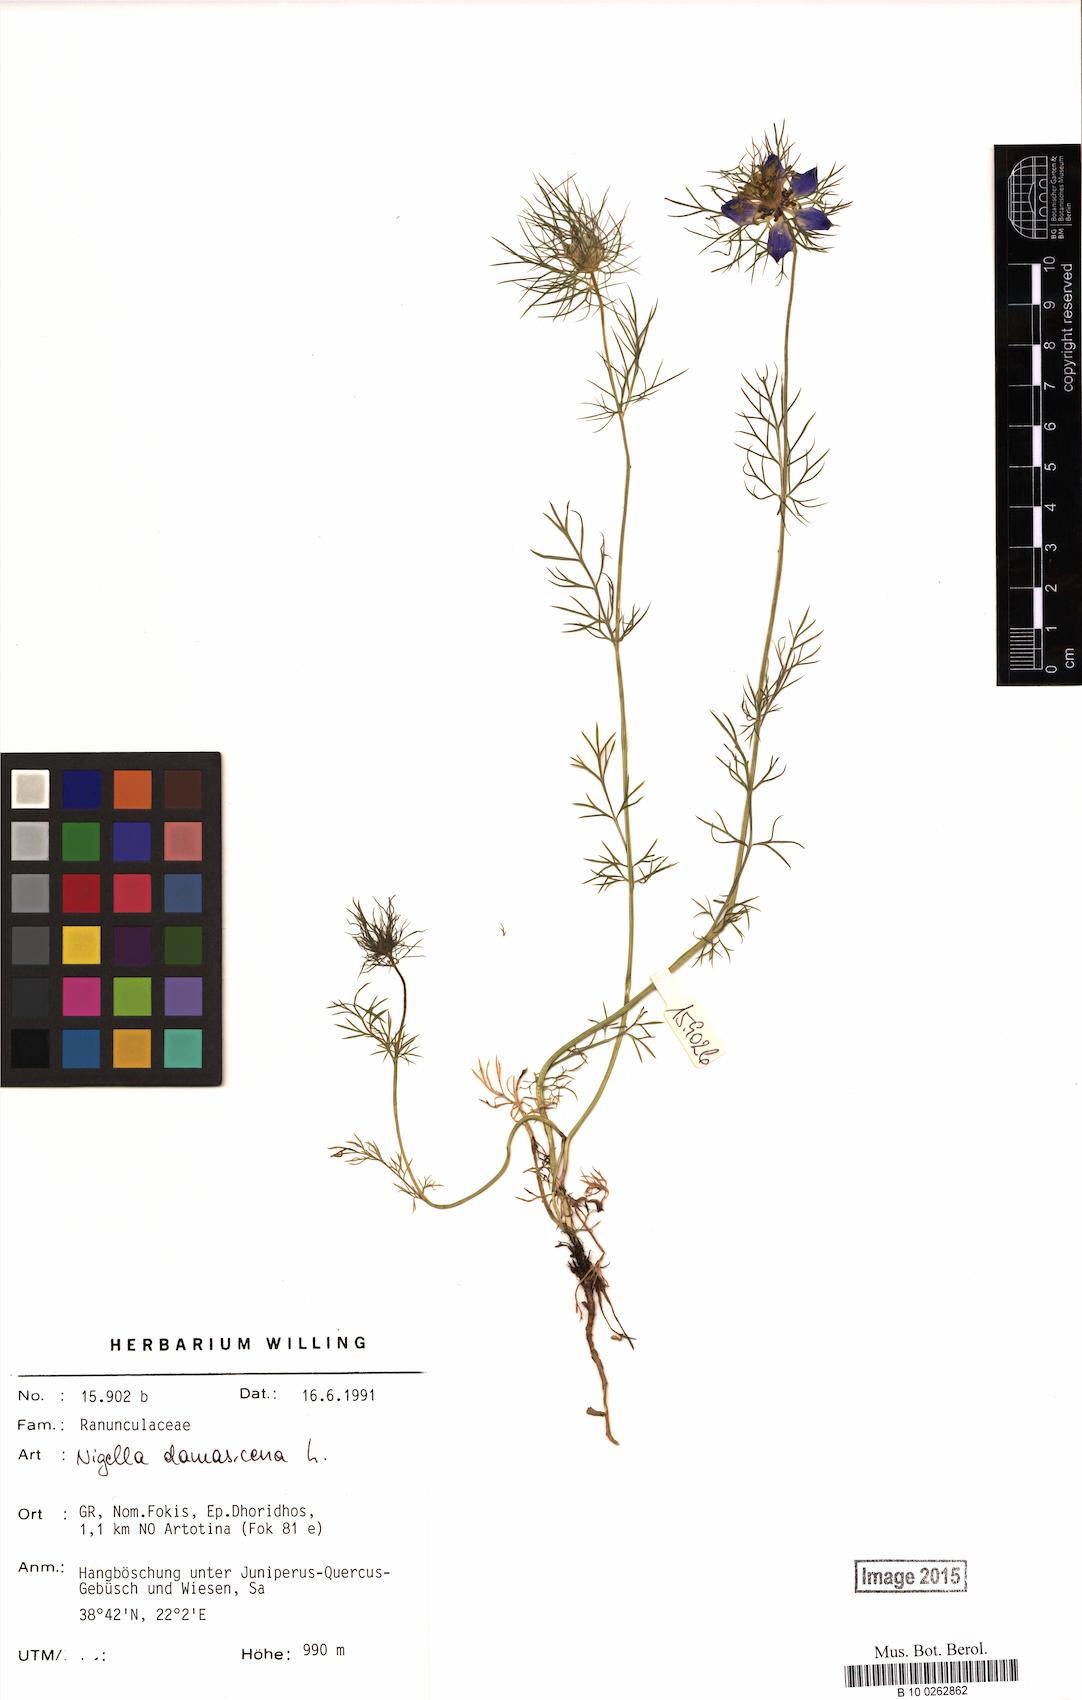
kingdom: Plantae
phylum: Tracheophyta
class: Magnoliopsida
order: Ranunculales
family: Ranunculaceae
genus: Nigella
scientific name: Nigella damascena
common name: Love-in-a-mist
